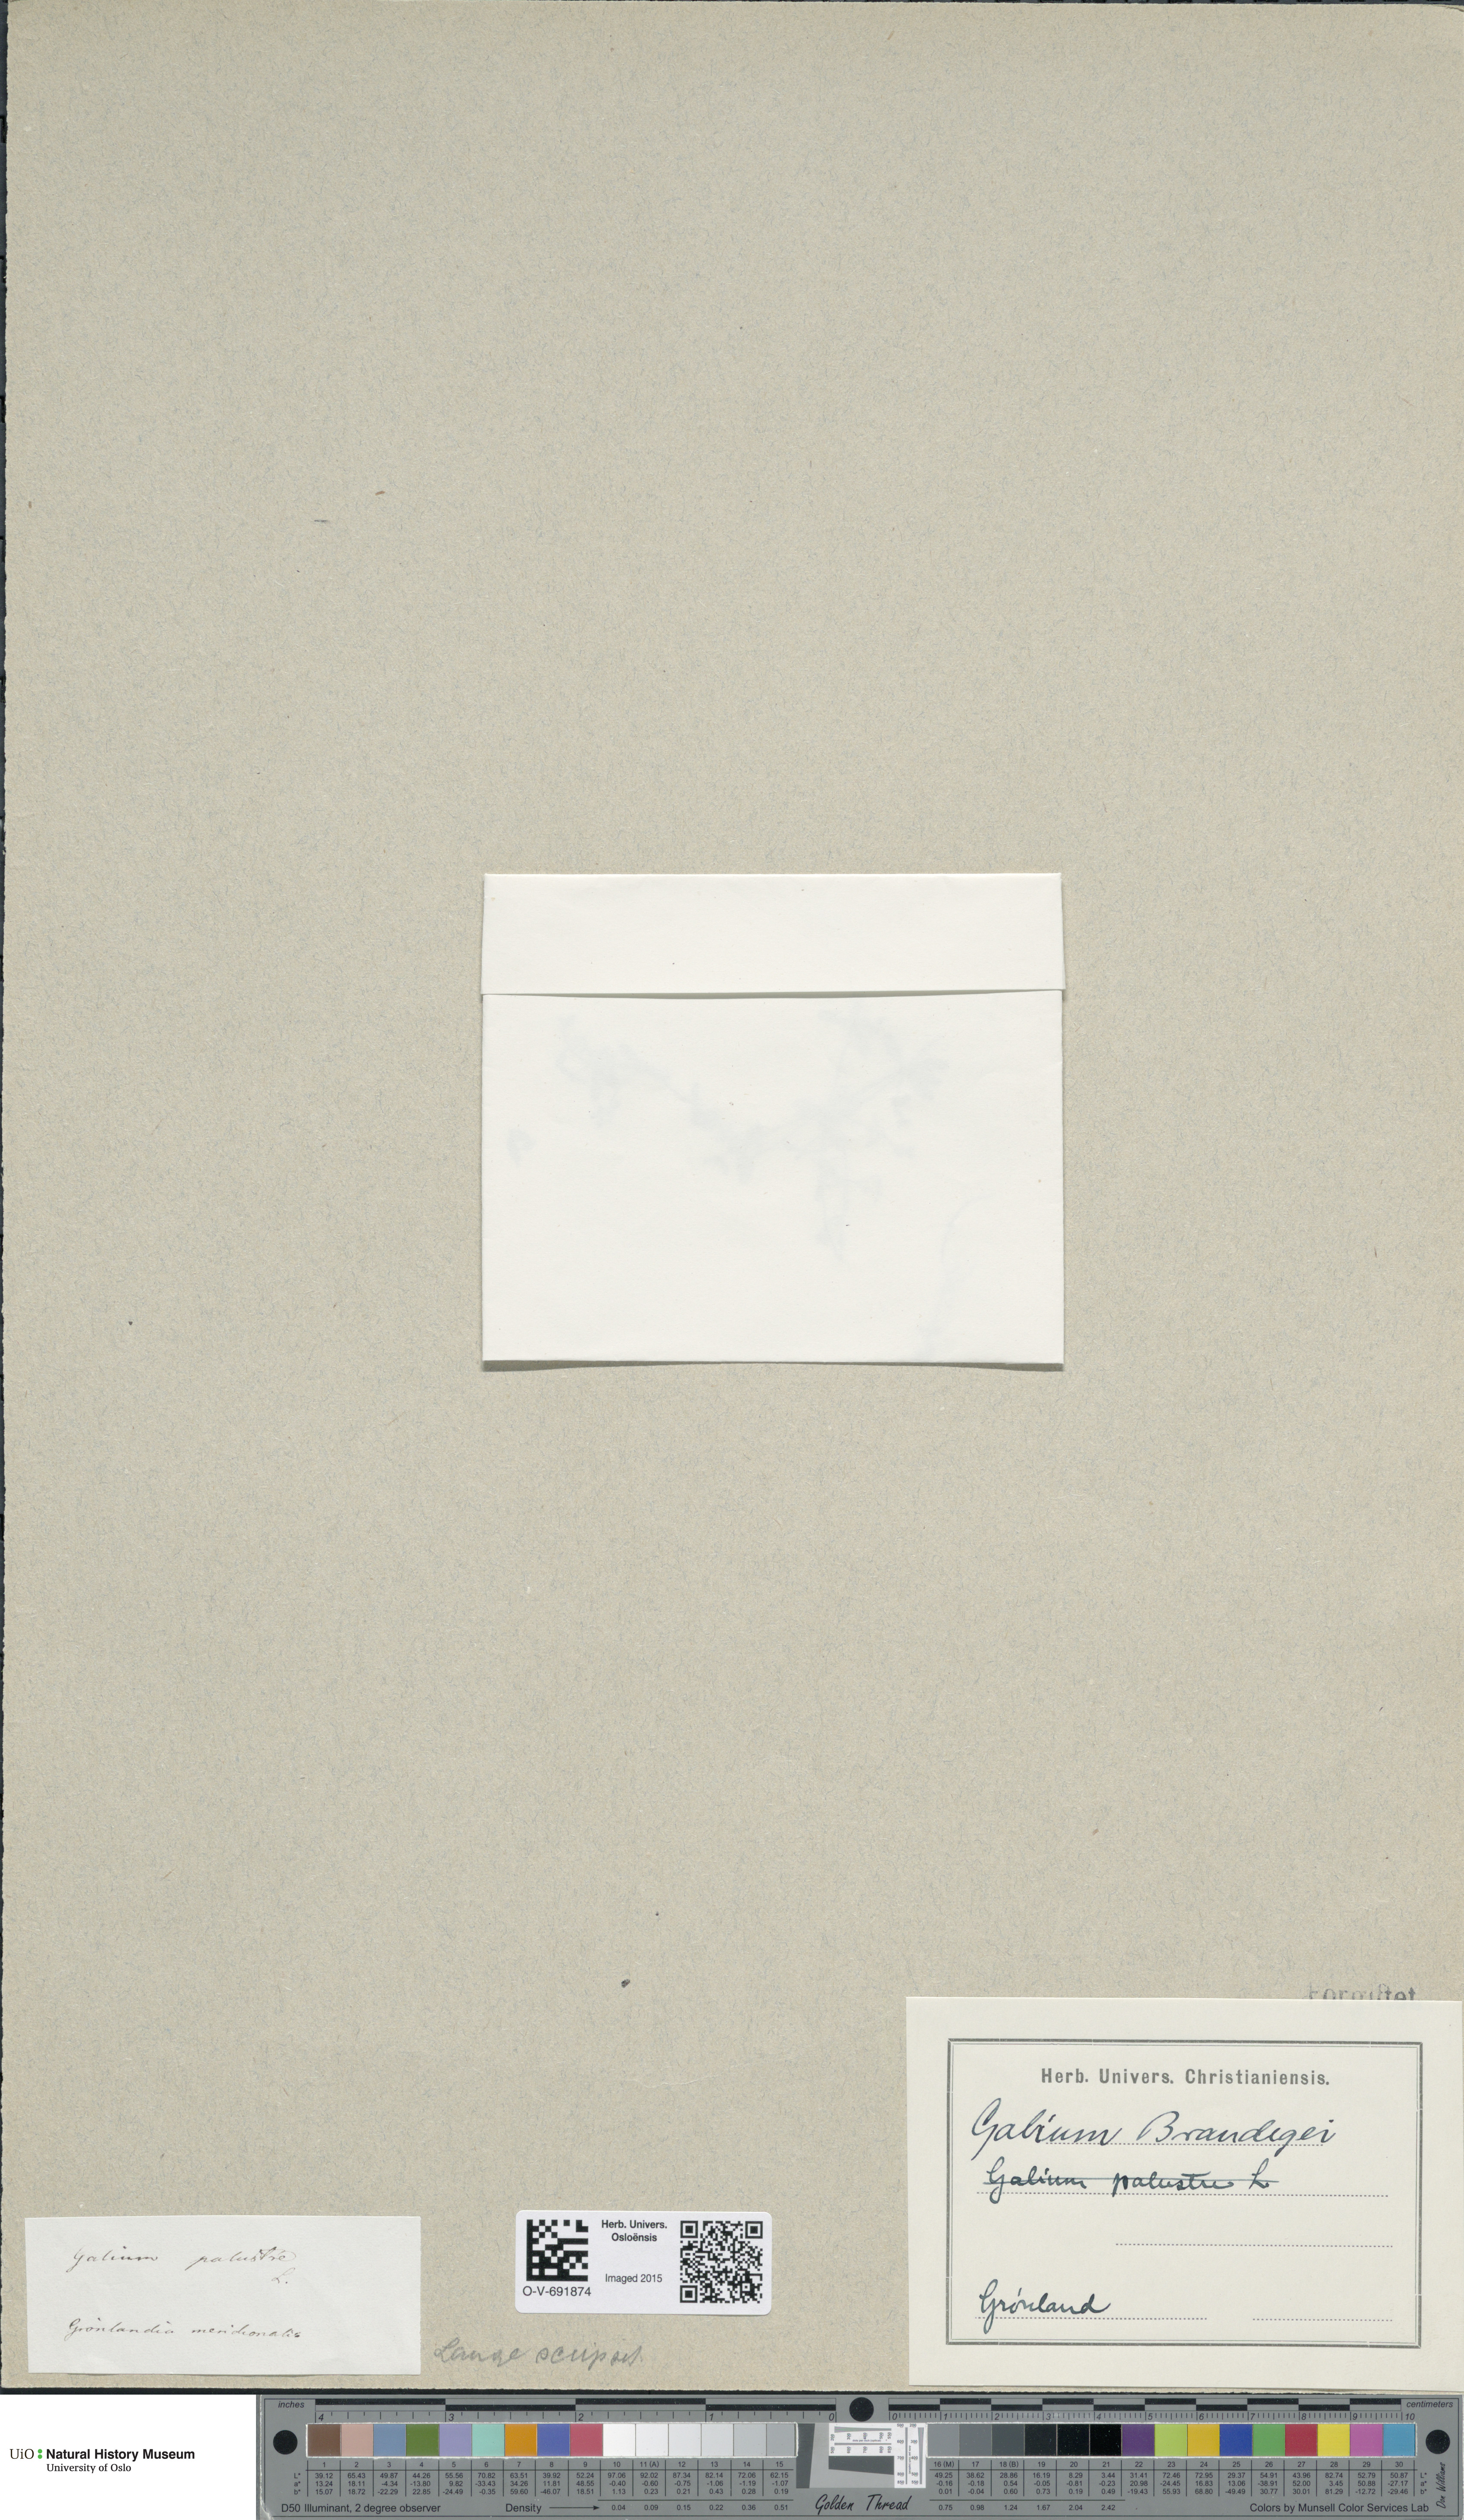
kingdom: Plantae
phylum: Tracheophyta
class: Magnoliopsida
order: Gentianales
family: Rubiaceae
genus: Galium
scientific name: Galium trifidum
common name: Small bedstraw
